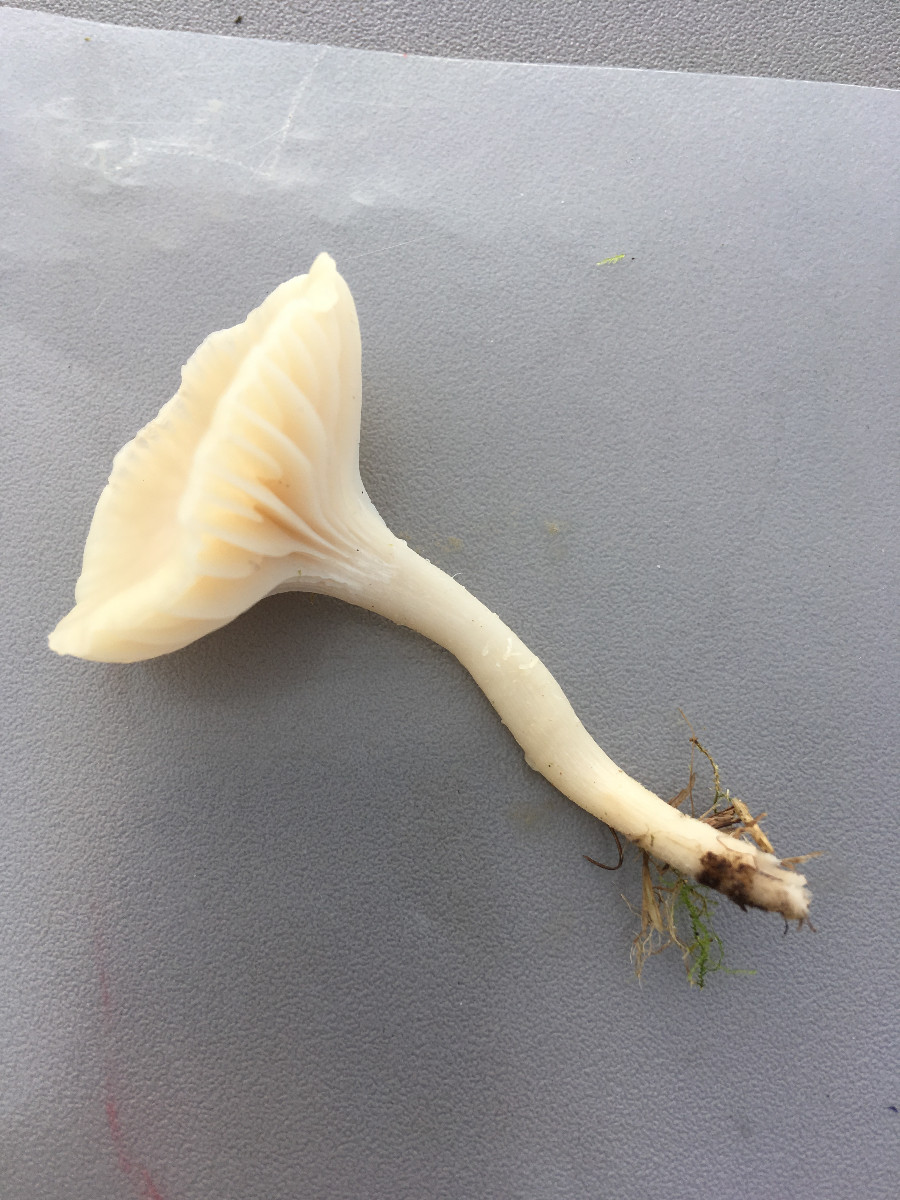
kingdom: Fungi
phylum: Basidiomycota
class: Agaricomycetes
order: Agaricales
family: Hygrophoraceae
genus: Cuphophyllus
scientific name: Cuphophyllus virgineus
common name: snehvid vokshat
